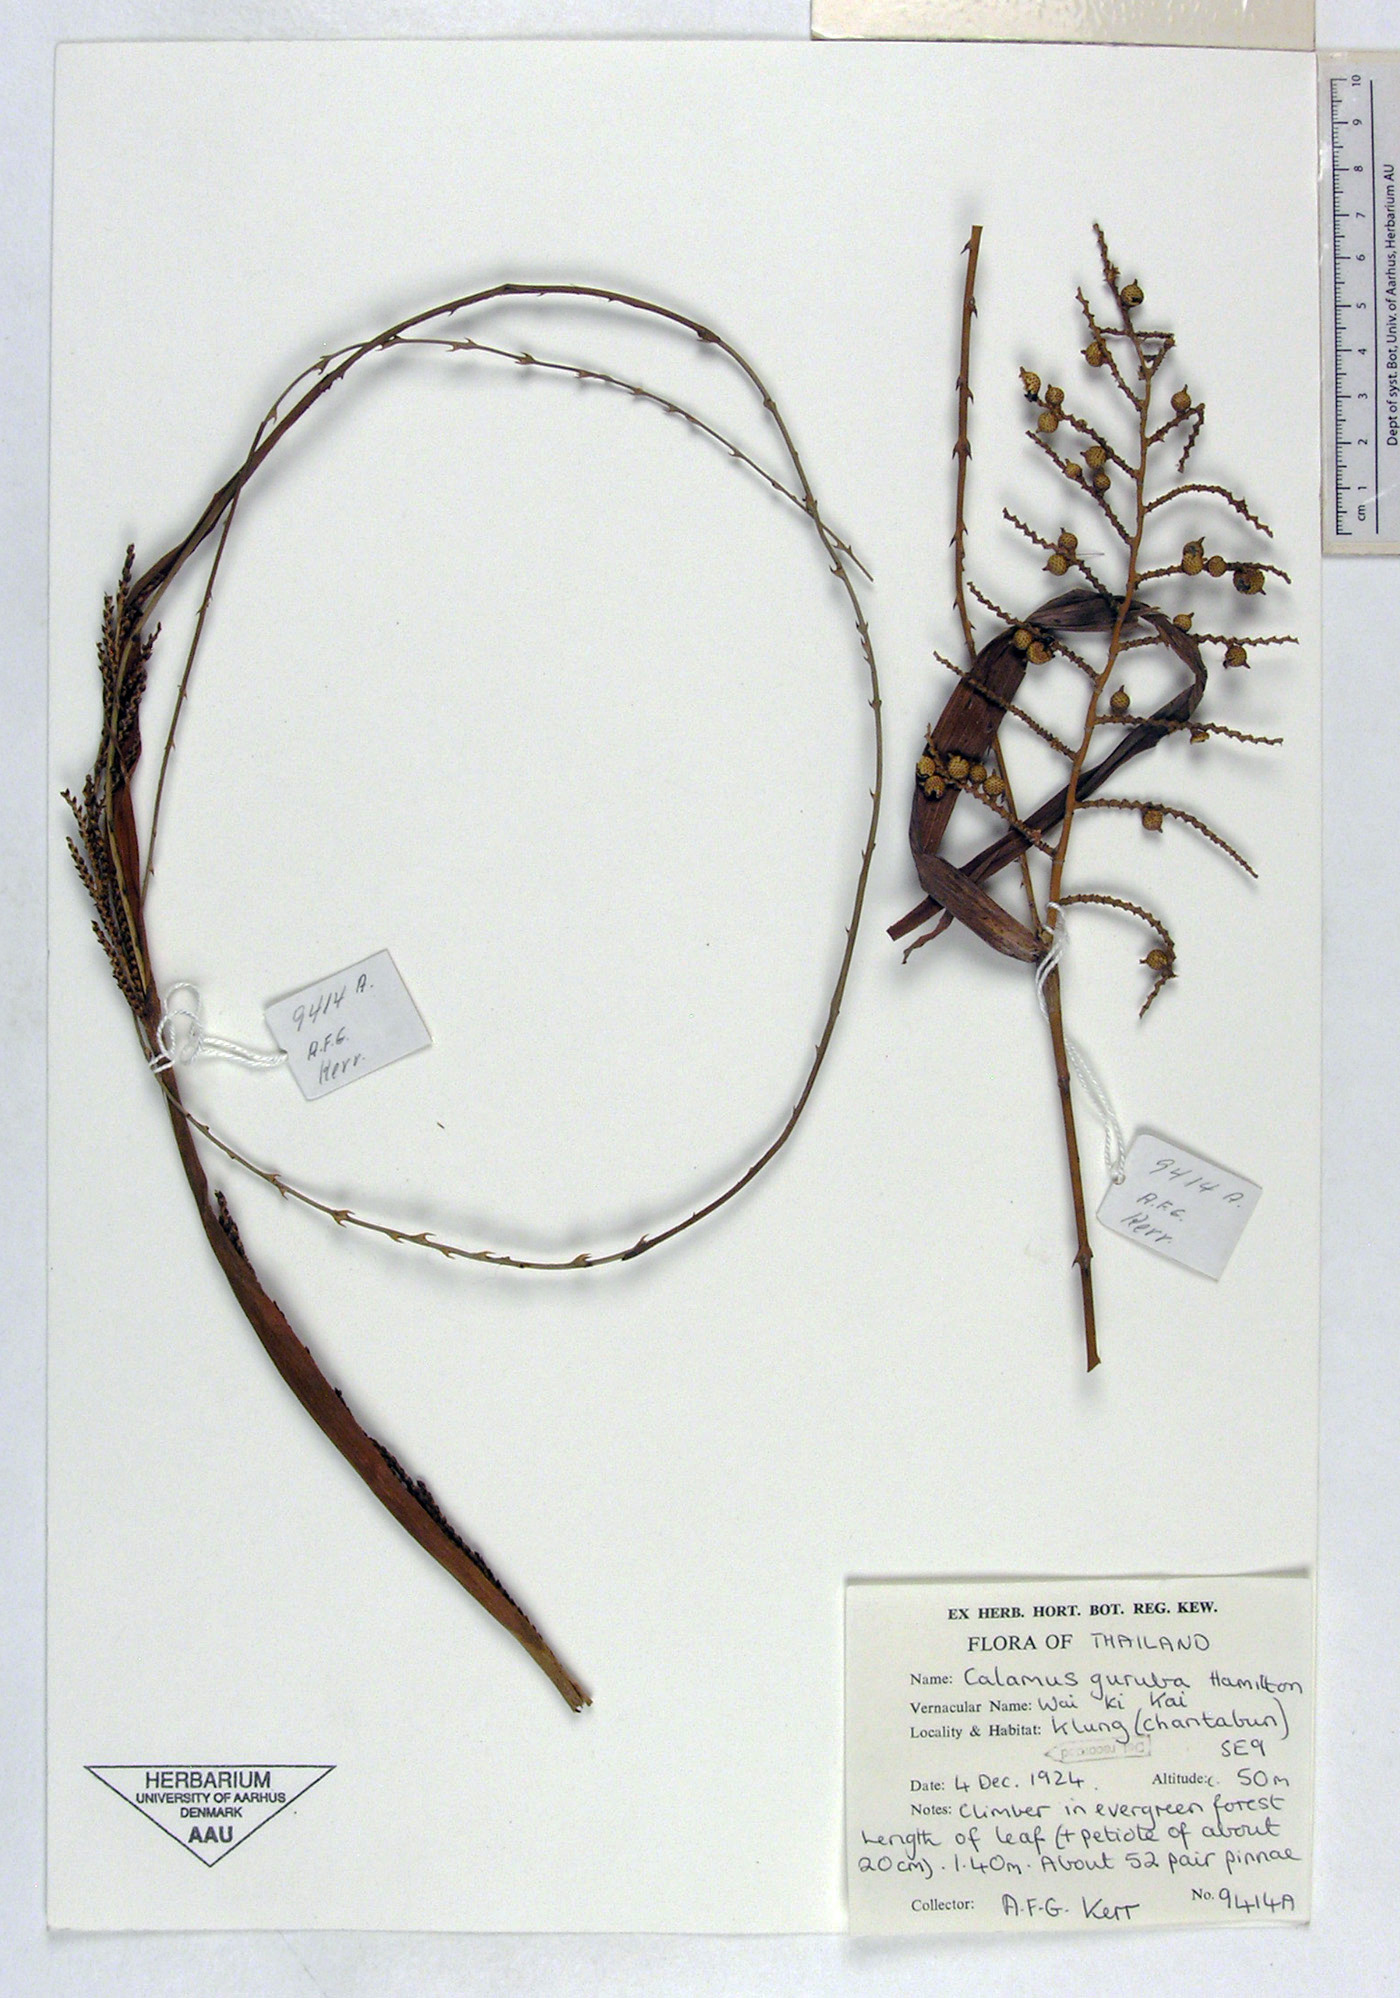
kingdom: Plantae
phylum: Tracheophyta
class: Liliopsida
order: Arecales
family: Arecaceae
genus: Calamus
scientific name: Calamus guruba
